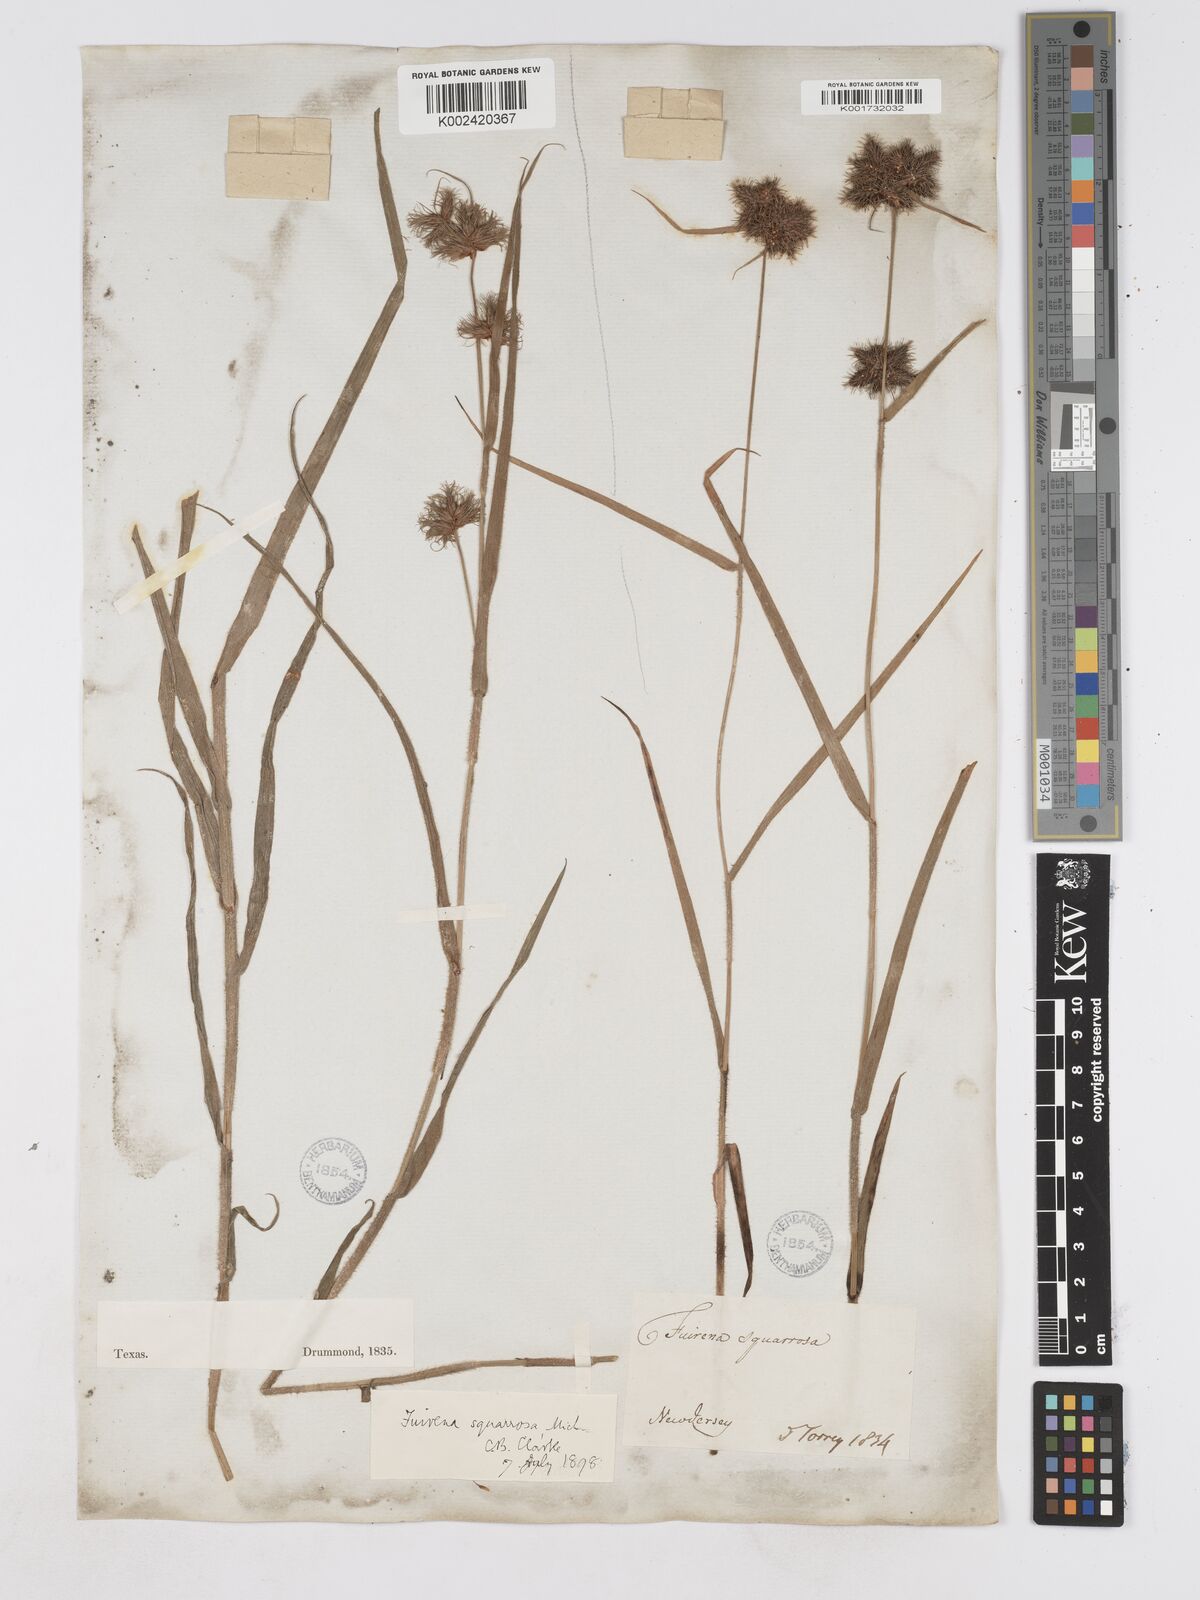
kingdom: Plantae
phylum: Tracheophyta
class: Liliopsida
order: Poales
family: Cyperaceae
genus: Fuirena
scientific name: Fuirena squarrosa
